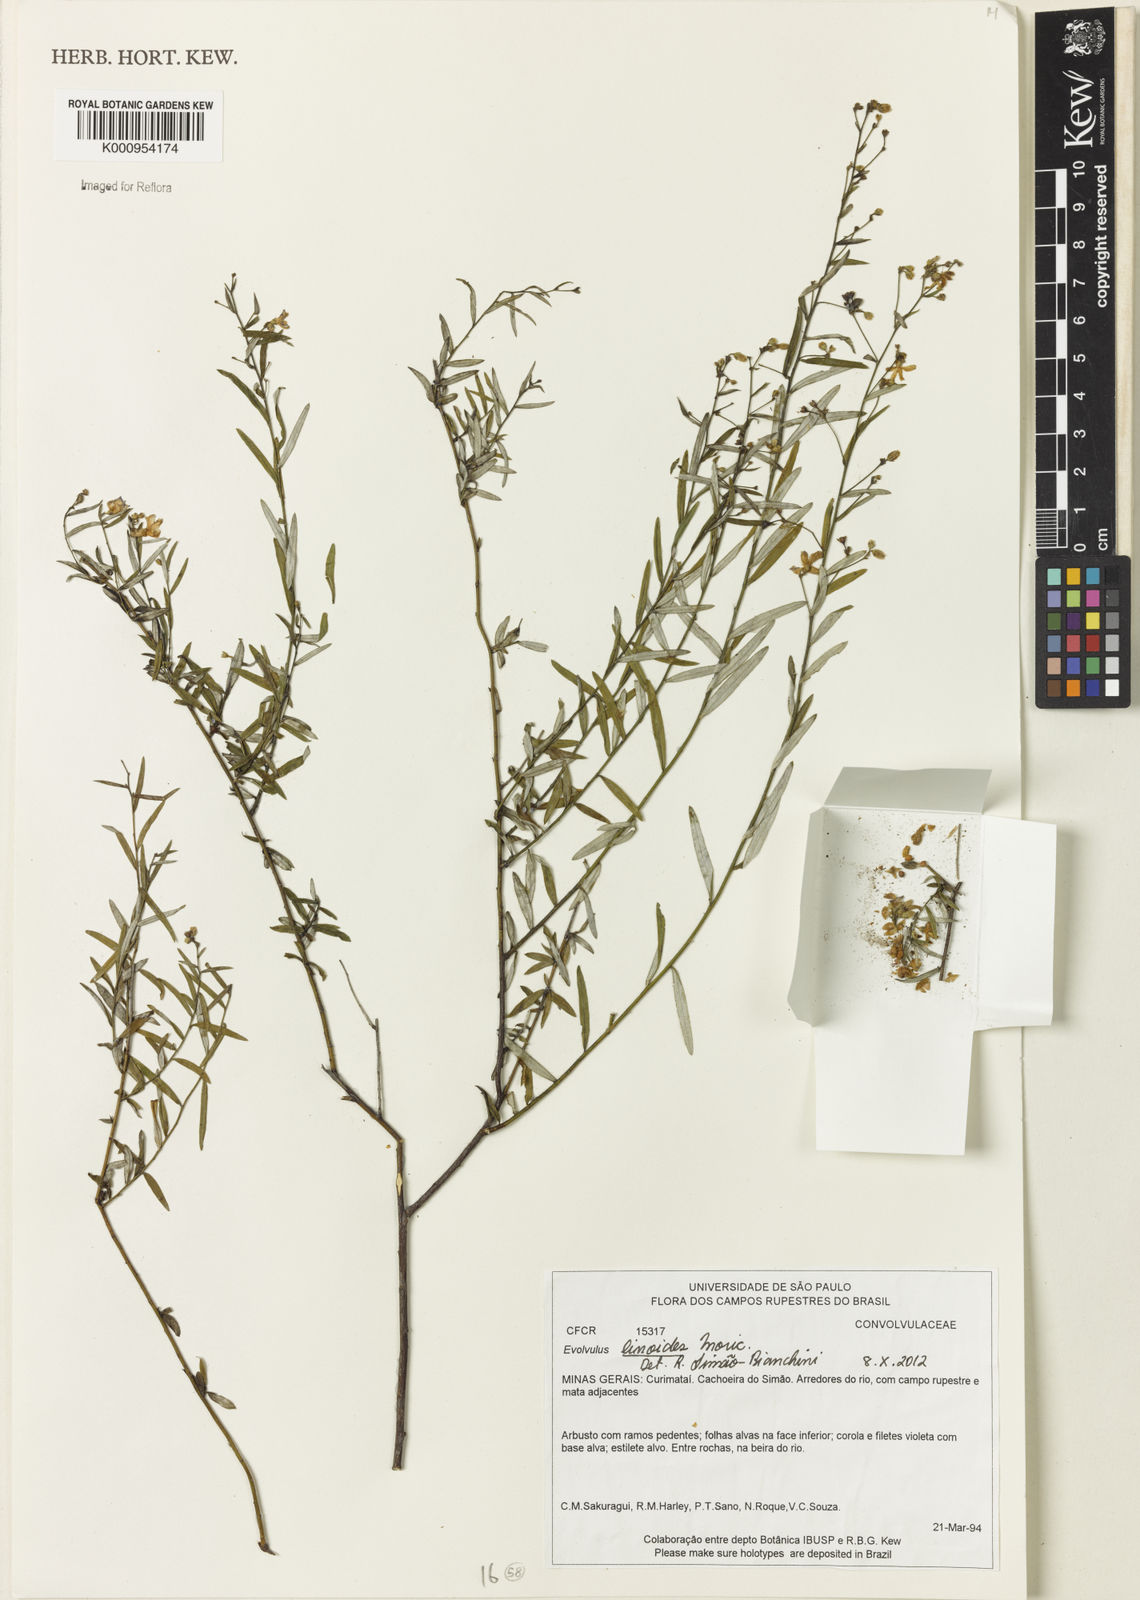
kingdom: Plantae
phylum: Tracheophyta
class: Magnoliopsida
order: Solanales
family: Convolvulaceae
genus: Evolvulus
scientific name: Evolvulus linoides
